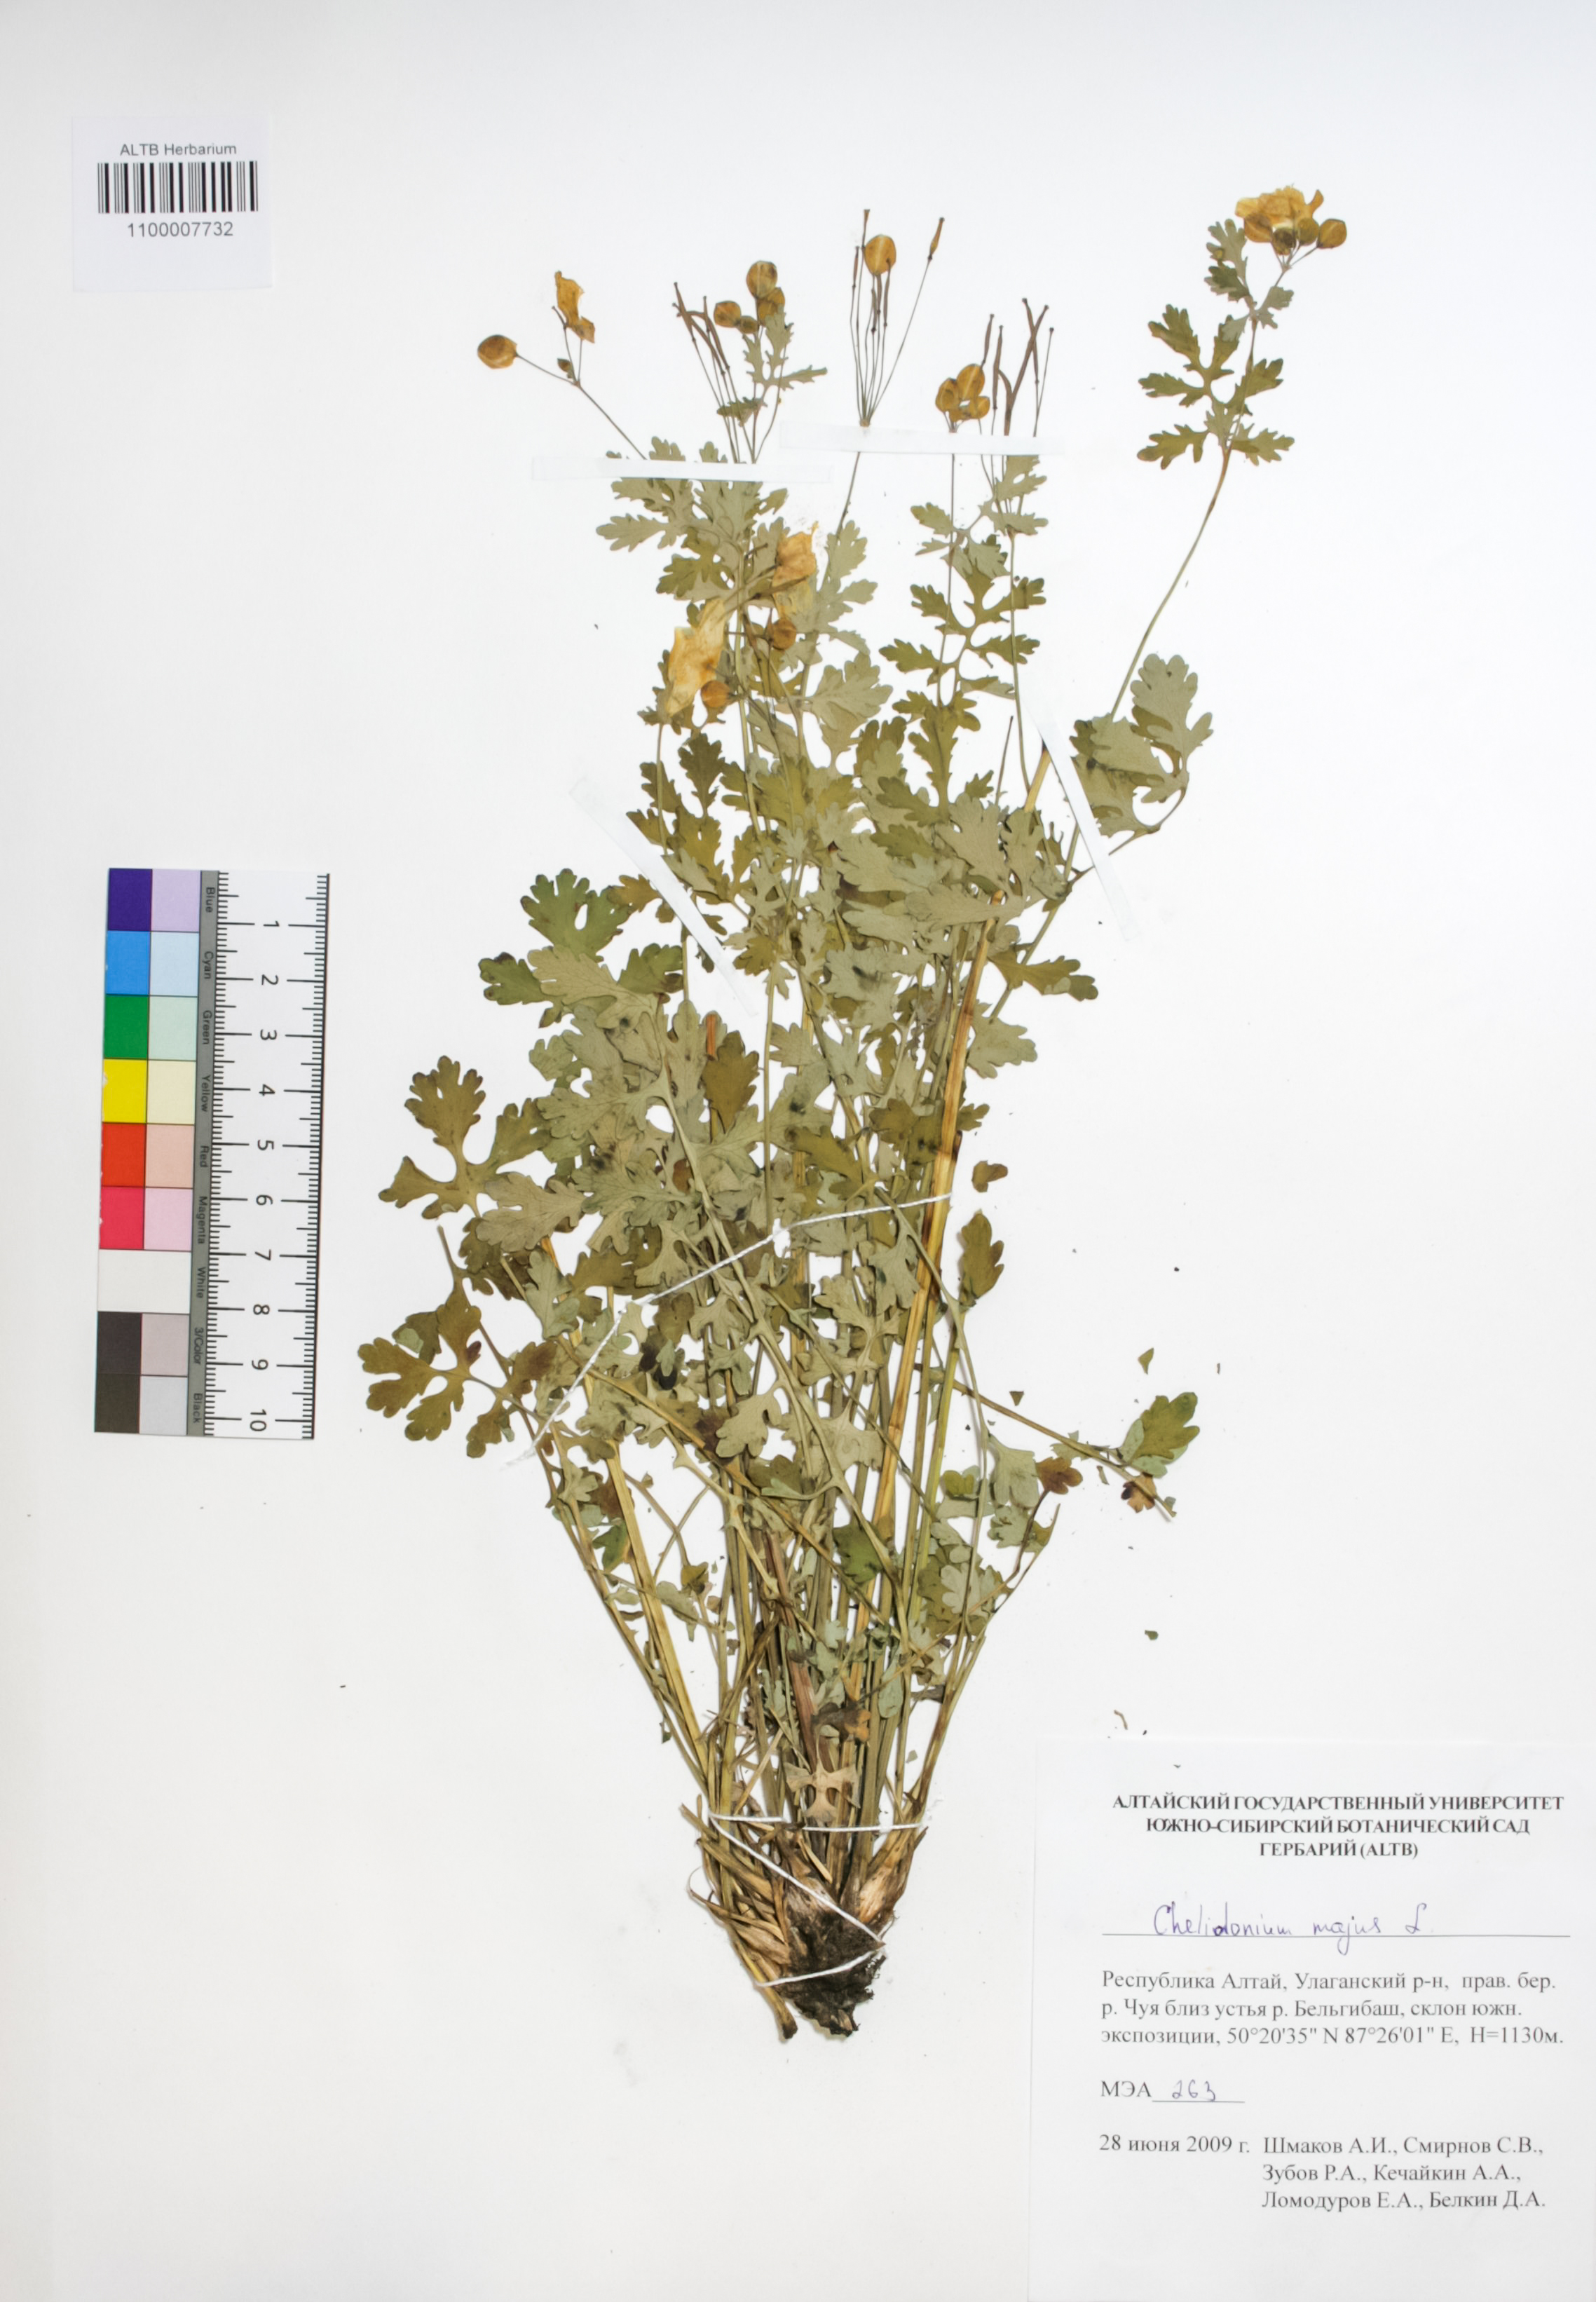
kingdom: Plantae
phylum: Tracheophyta
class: Magnoliopsida
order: Ranunculales
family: Papaveraceae
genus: Chelidonium
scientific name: Chelidonium majus
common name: Greater celandine
